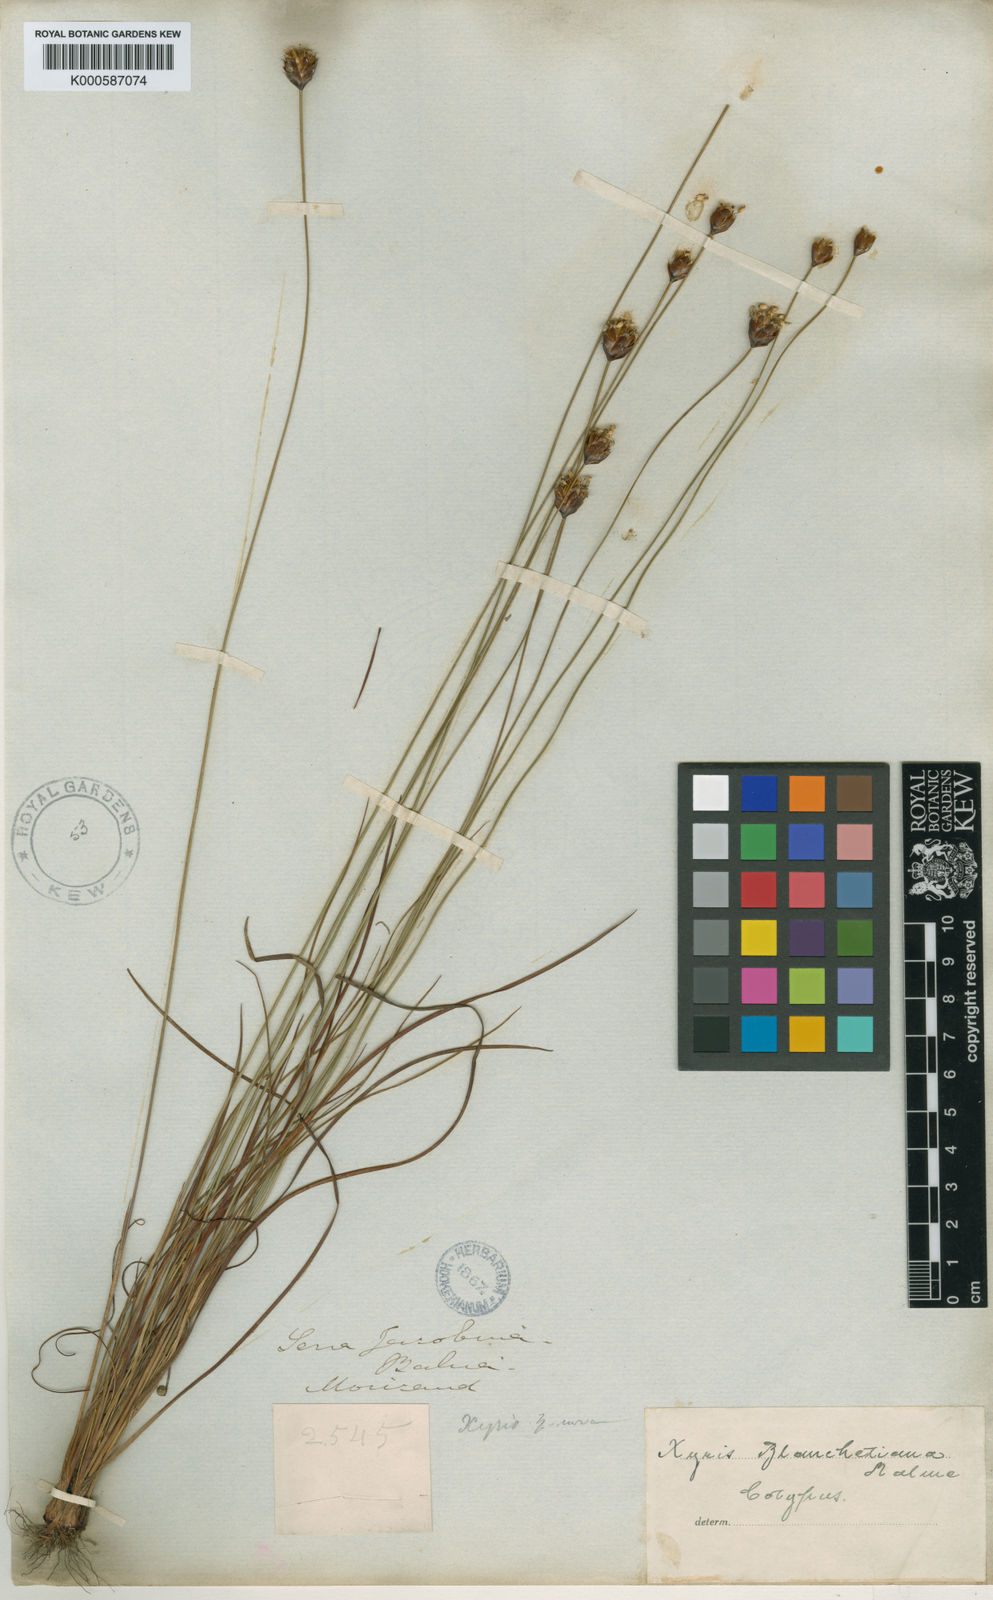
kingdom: Plantae
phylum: Tracheophyta
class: Liliopsida
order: Poales
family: Xyridaceae
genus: Xyris
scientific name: Xyris blanchetiana
